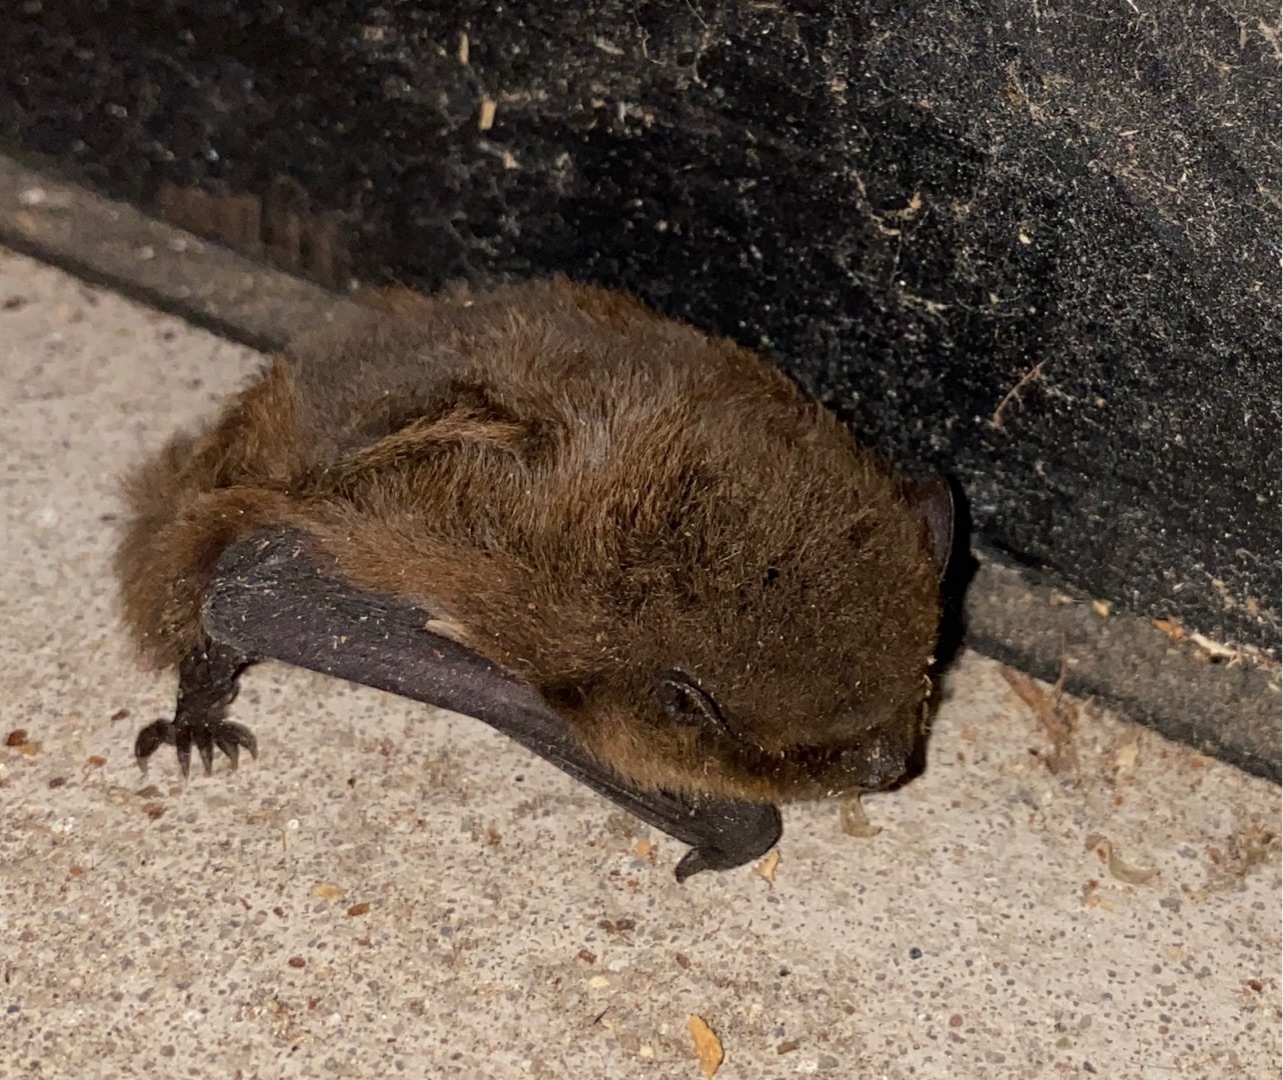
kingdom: Animalia
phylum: Chordata
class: Mammalia
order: Chiroptera
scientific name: Chiroptera
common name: Flagermus
